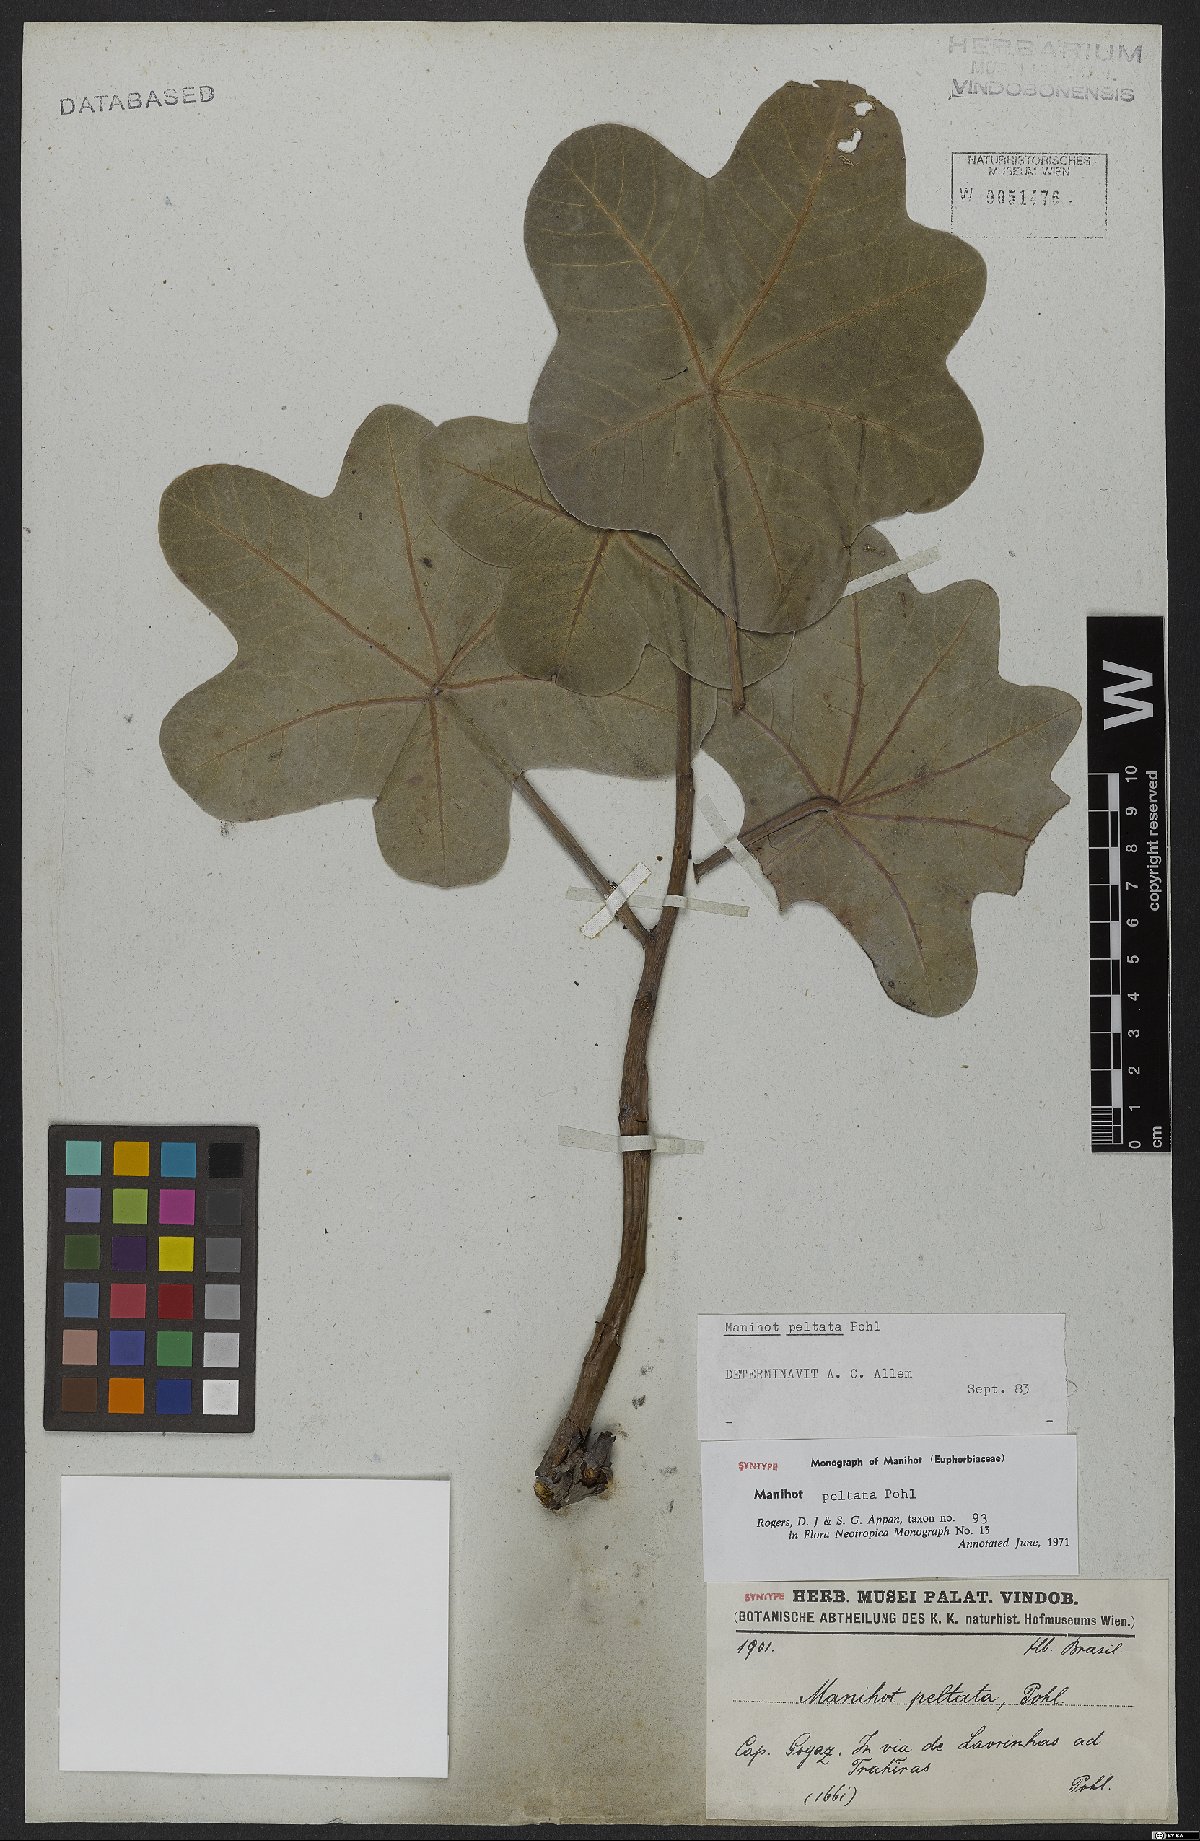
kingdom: Plantae
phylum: Tracheophyta
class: Magnoliopsida
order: Malpighiales
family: Euphorbiaceae
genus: Manihot
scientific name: Manihot peltata
